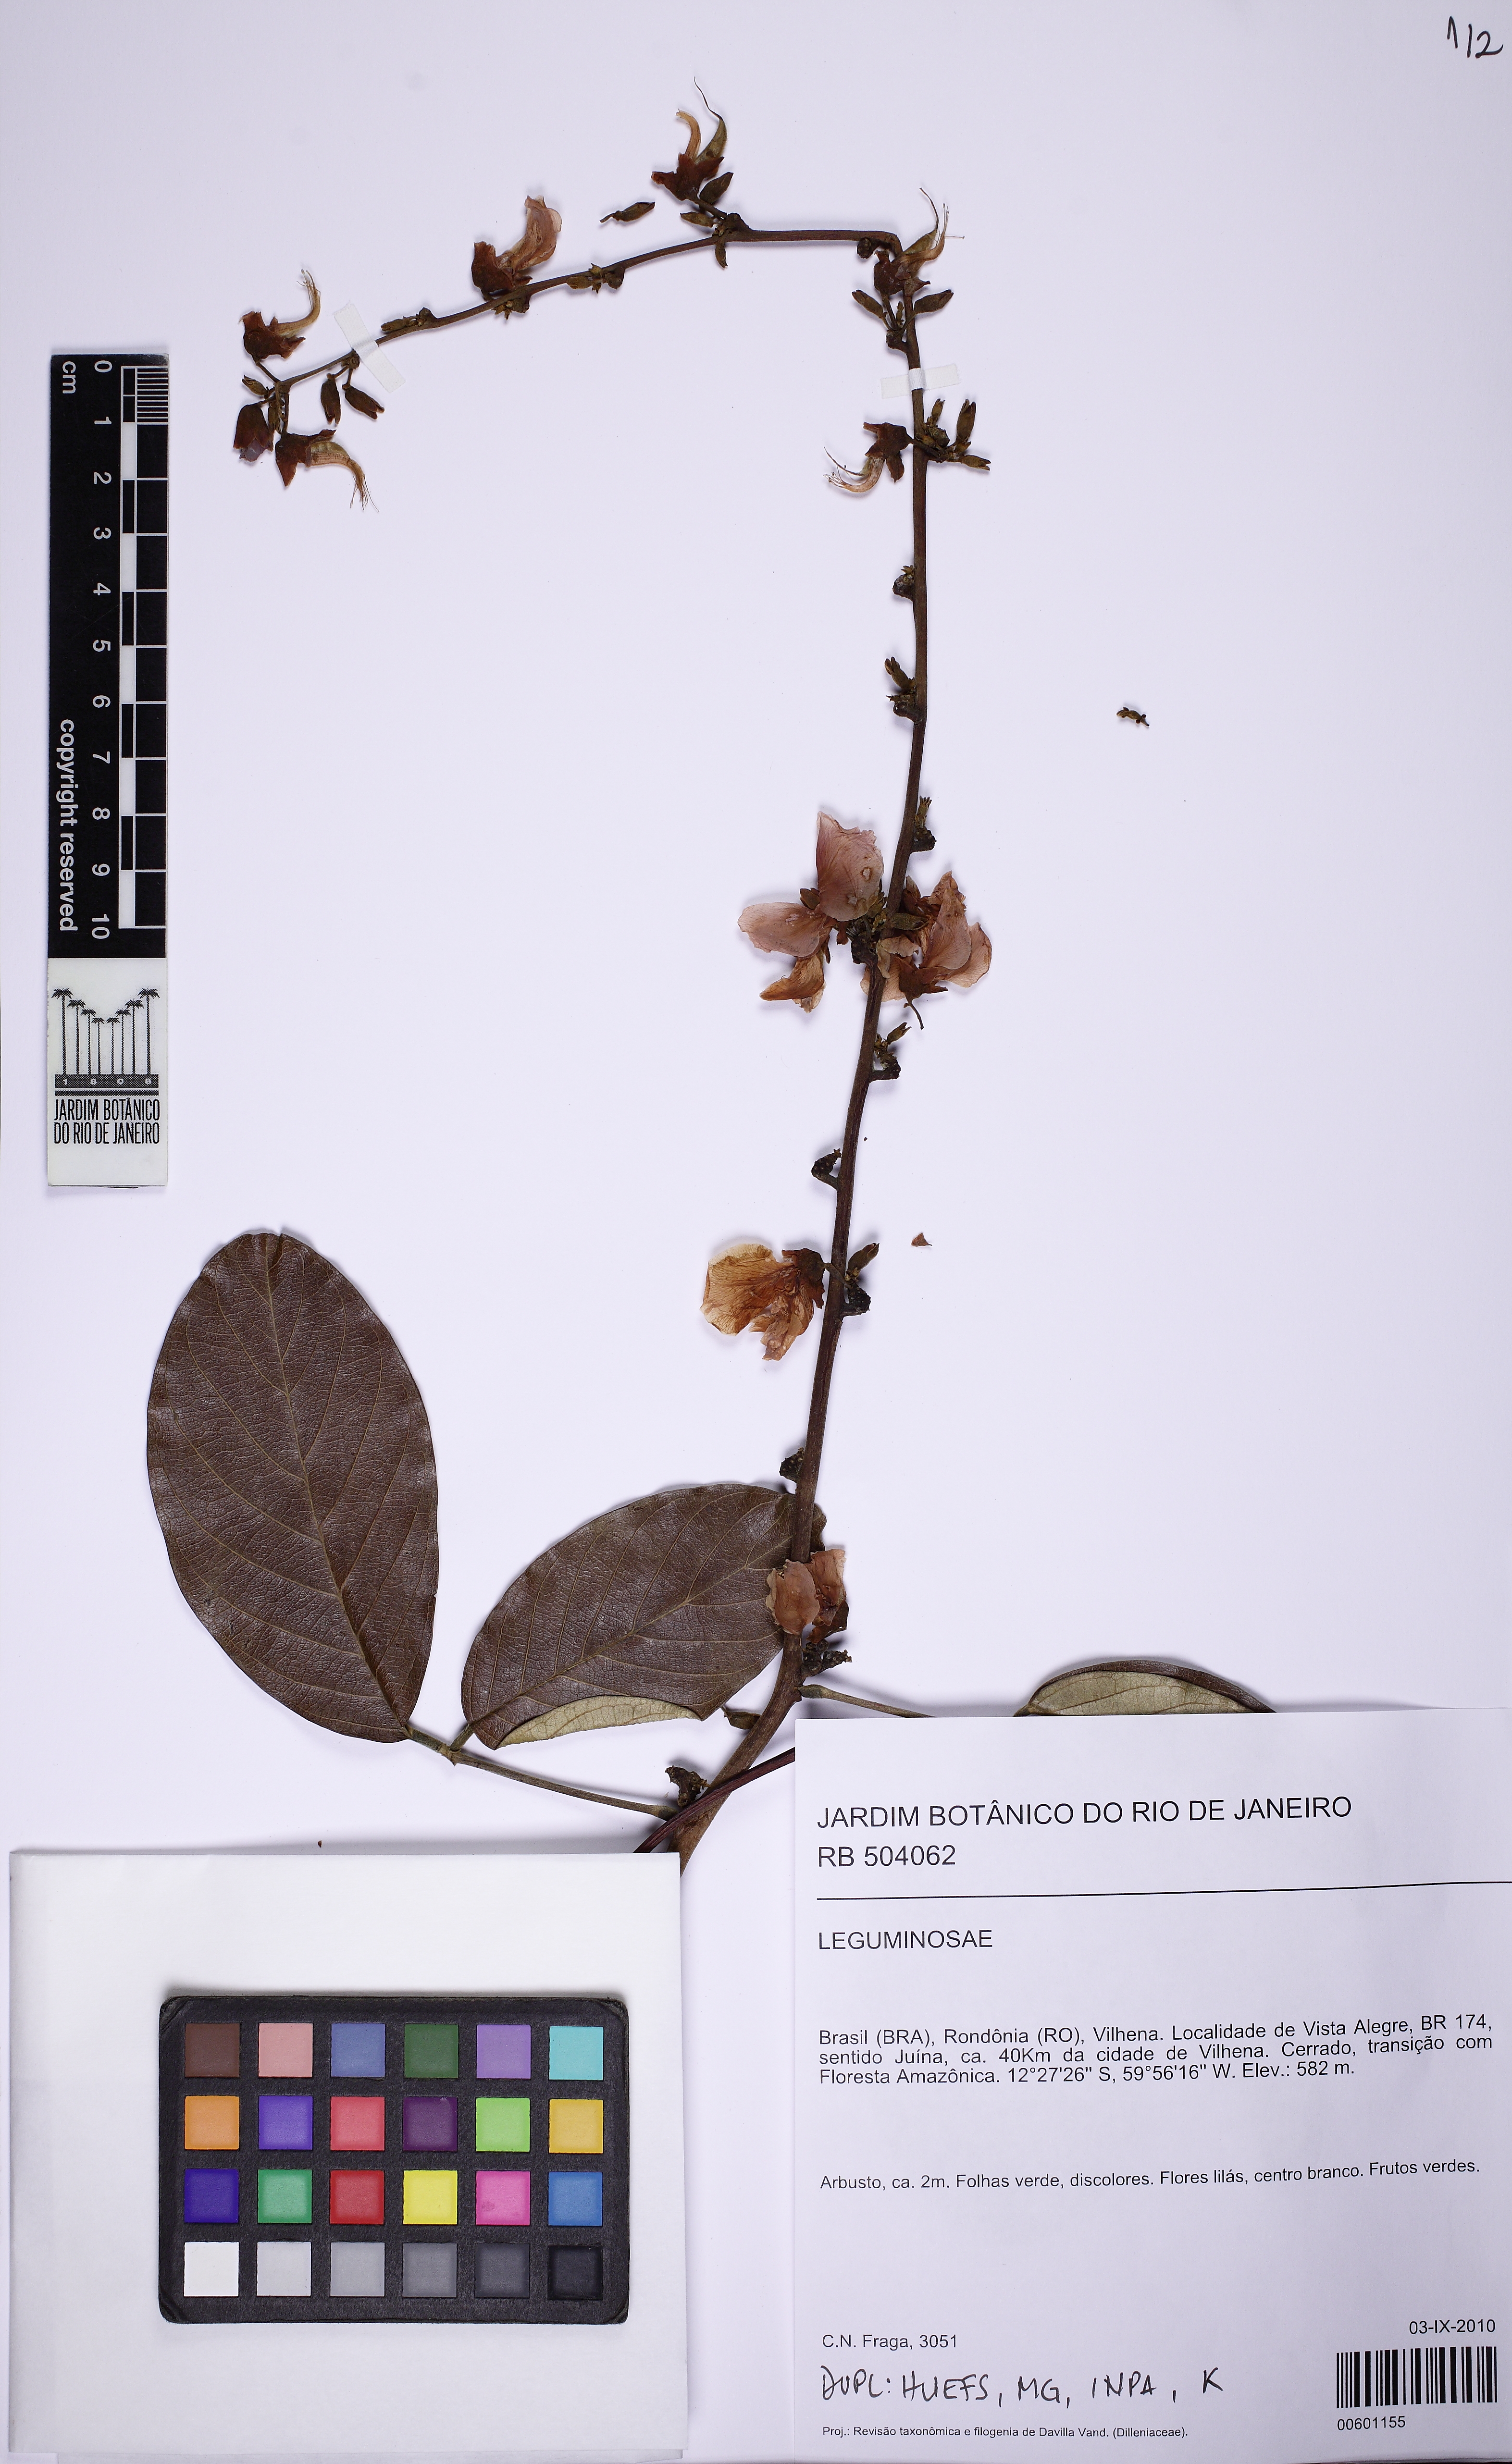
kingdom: Plantae
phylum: Tracheophyta
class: Magnoliopsida
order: Fabales
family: Fabaceae
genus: Dioclea
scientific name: Dioclea
